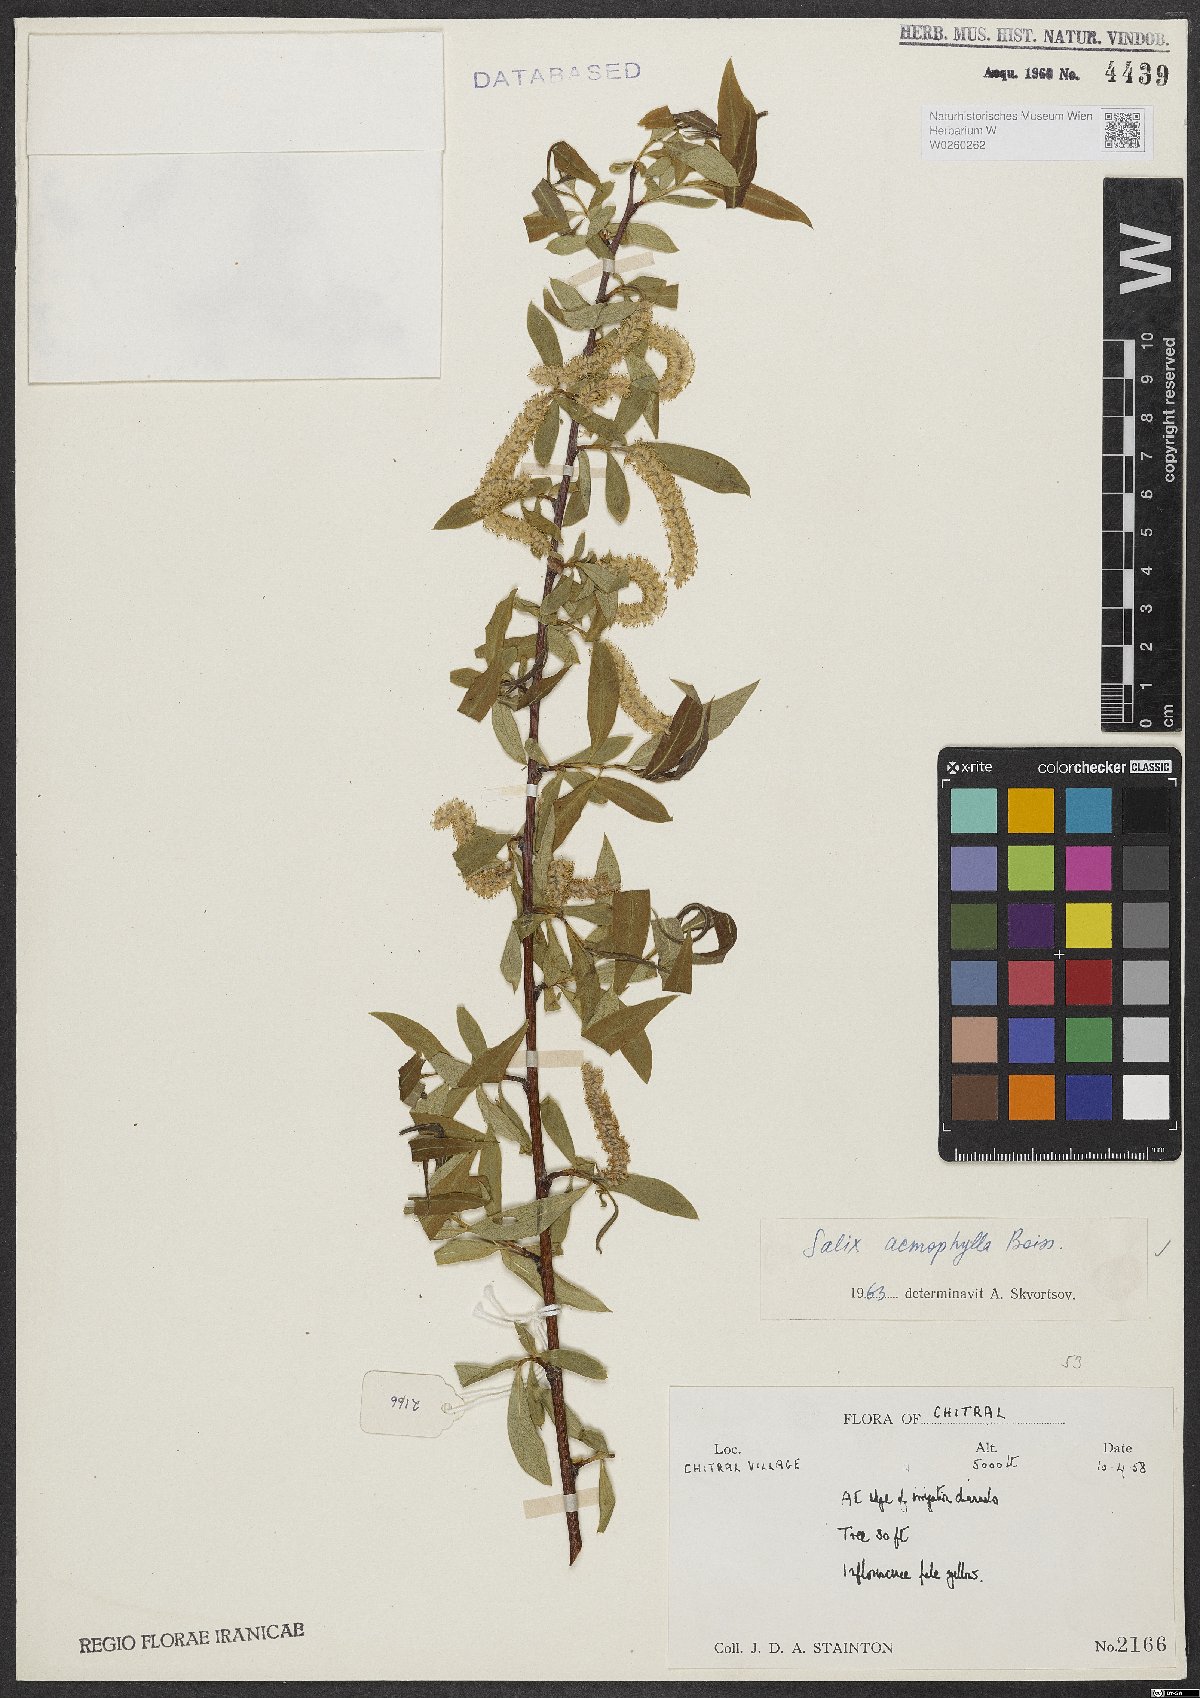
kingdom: Plantae
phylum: Tracheophyta
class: Magnoliopsida
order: Malpighiales
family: Salicaceae
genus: Salix
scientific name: Salix acmophylla
